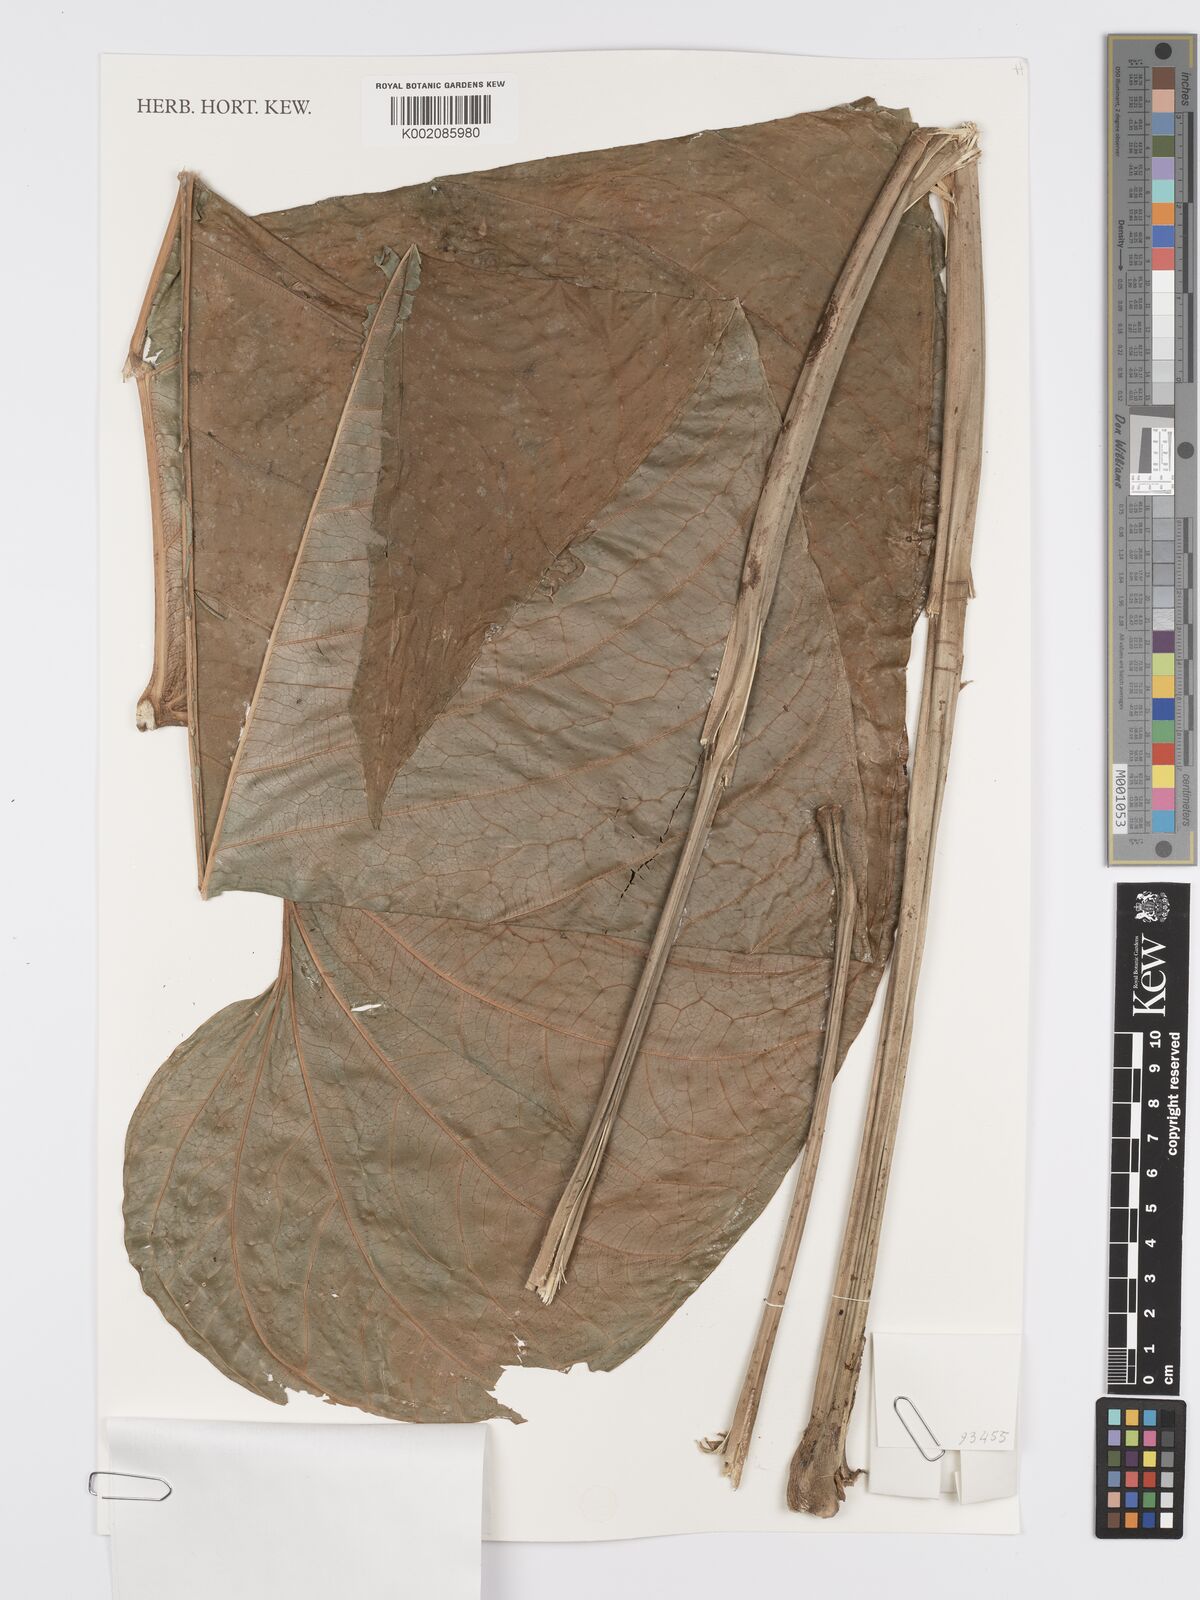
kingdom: Plantae
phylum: Tracheophyta
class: Liliopsida
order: Alismatales
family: Araceae
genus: Anthurium
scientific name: Anthurium dolichostachyum
